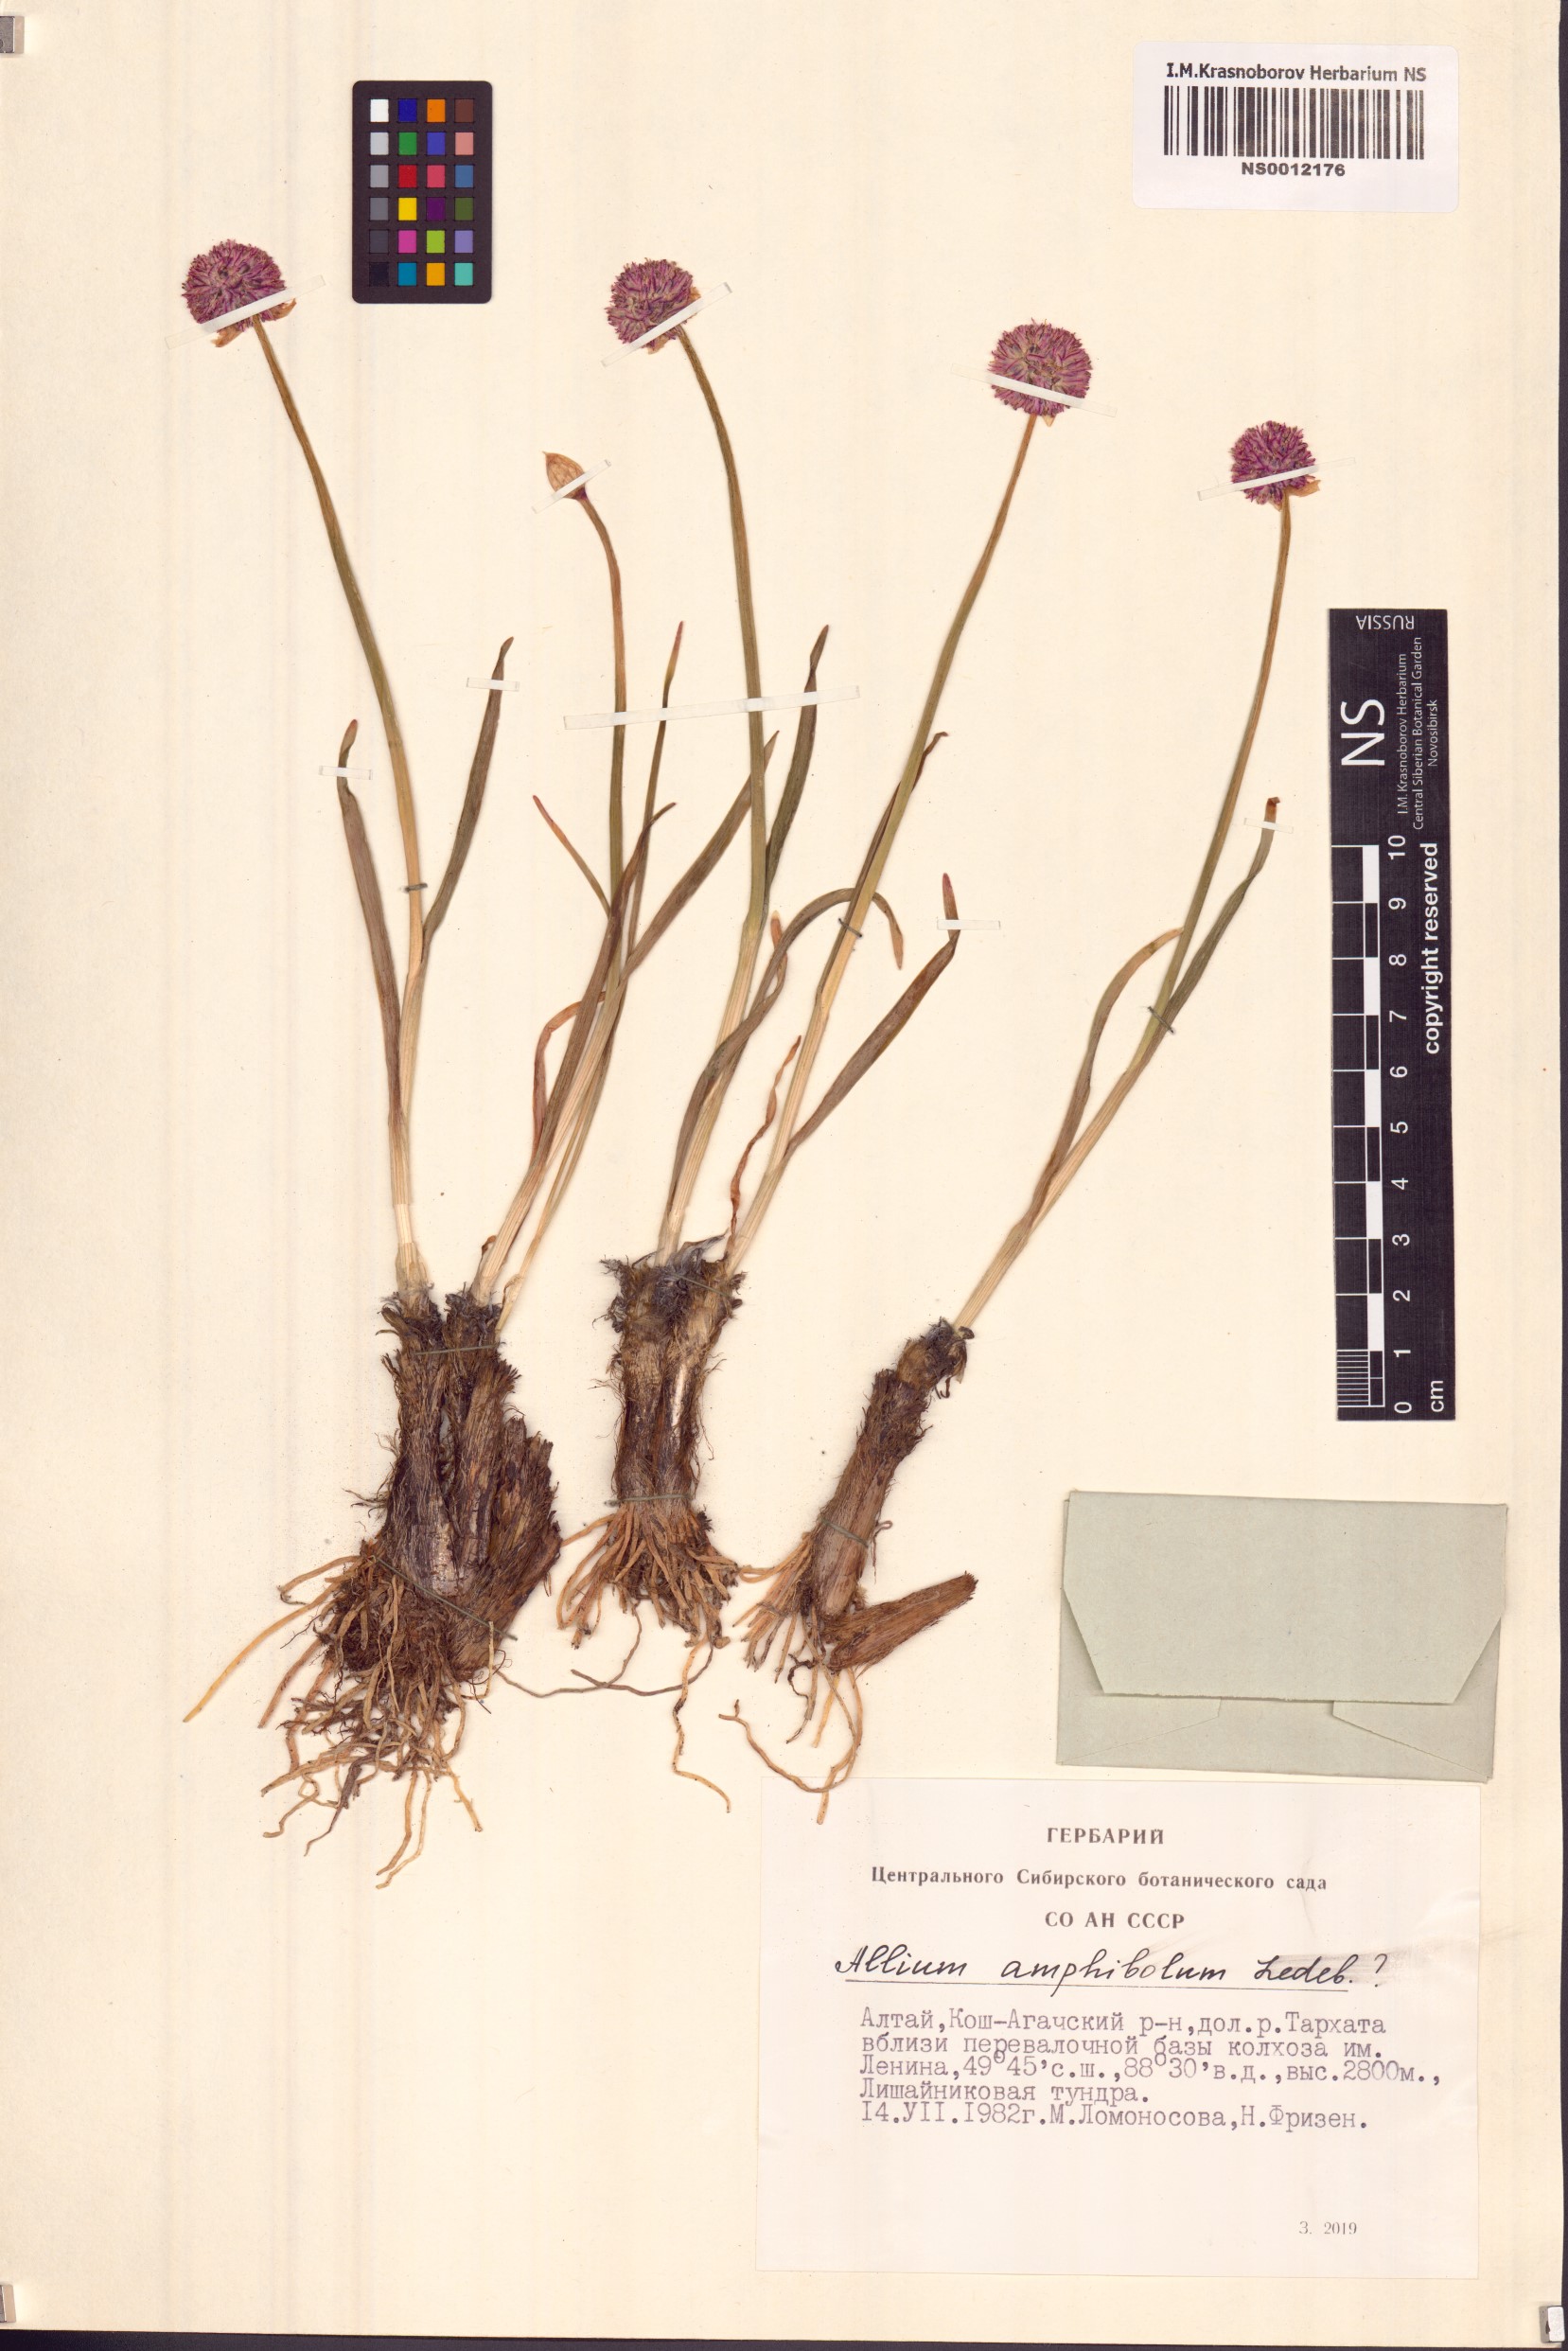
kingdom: Plantae
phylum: Tracheophyta
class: Liliopsida
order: Asparagales
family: Amaryllidaceae
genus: Allium
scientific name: Allium amphibolum
